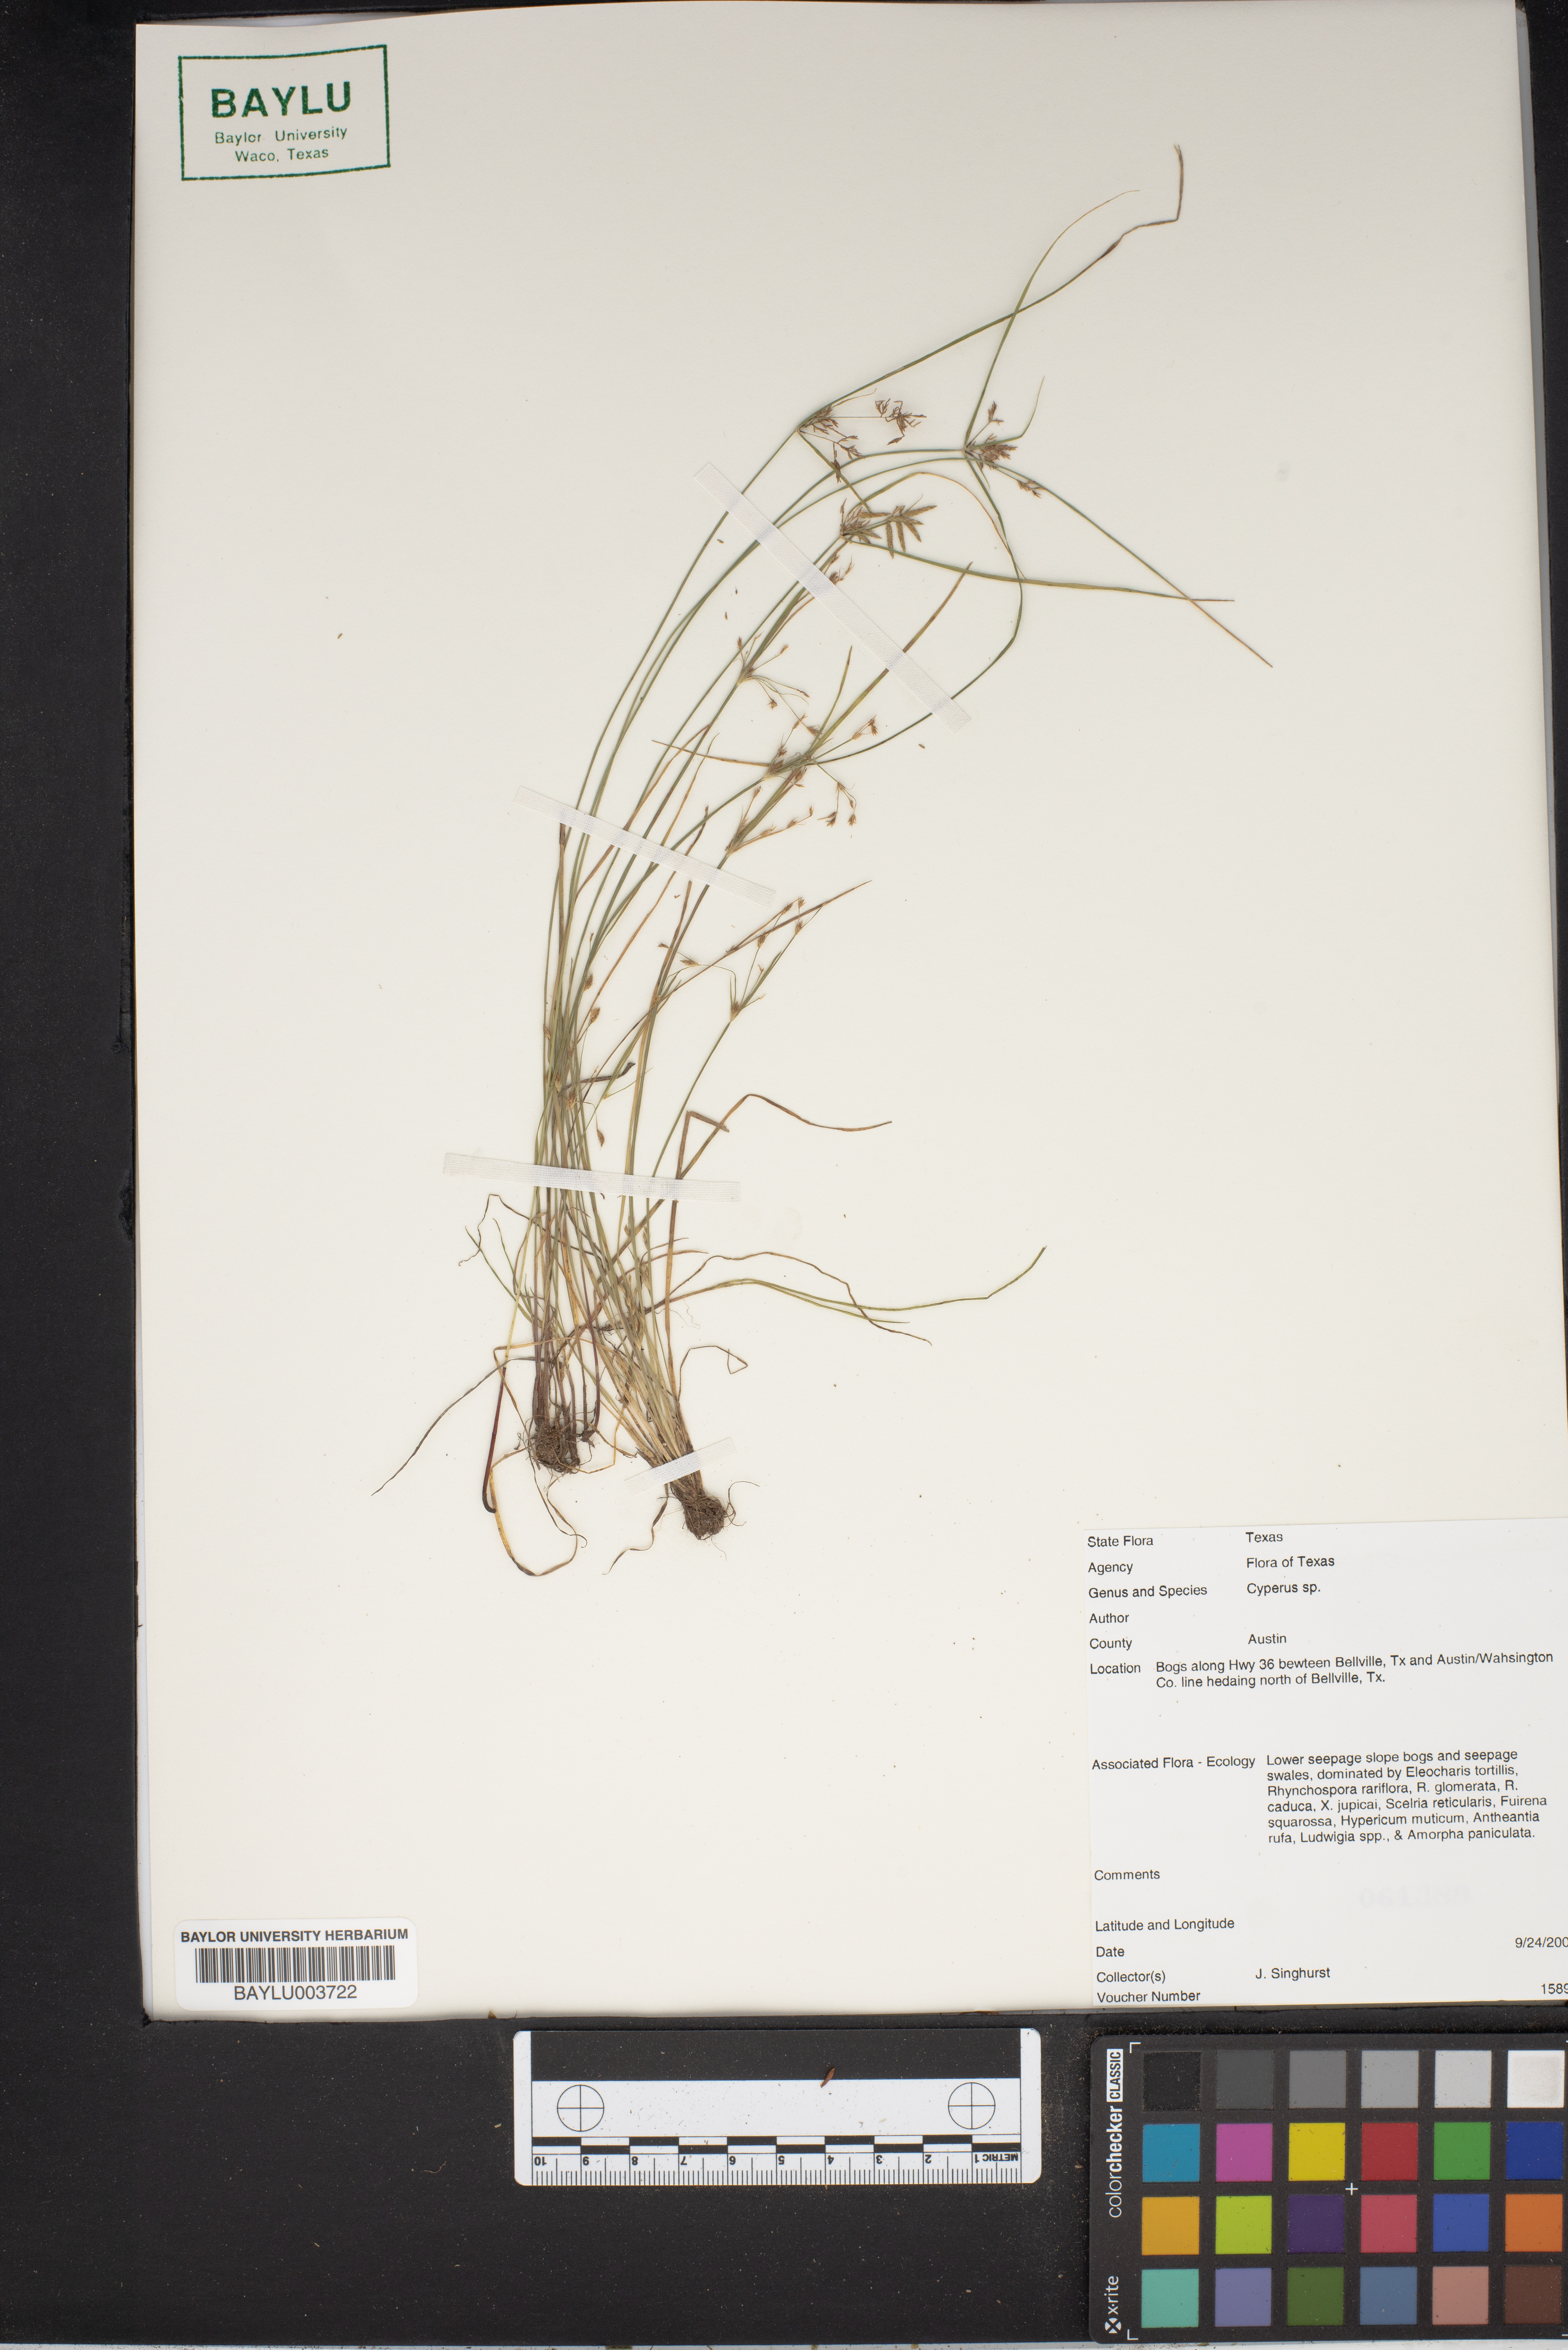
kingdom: Plantae
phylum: Tracheophyta
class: Liliopsida
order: Poales
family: Cyperaceae
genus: Cyperus
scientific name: Cyperus
